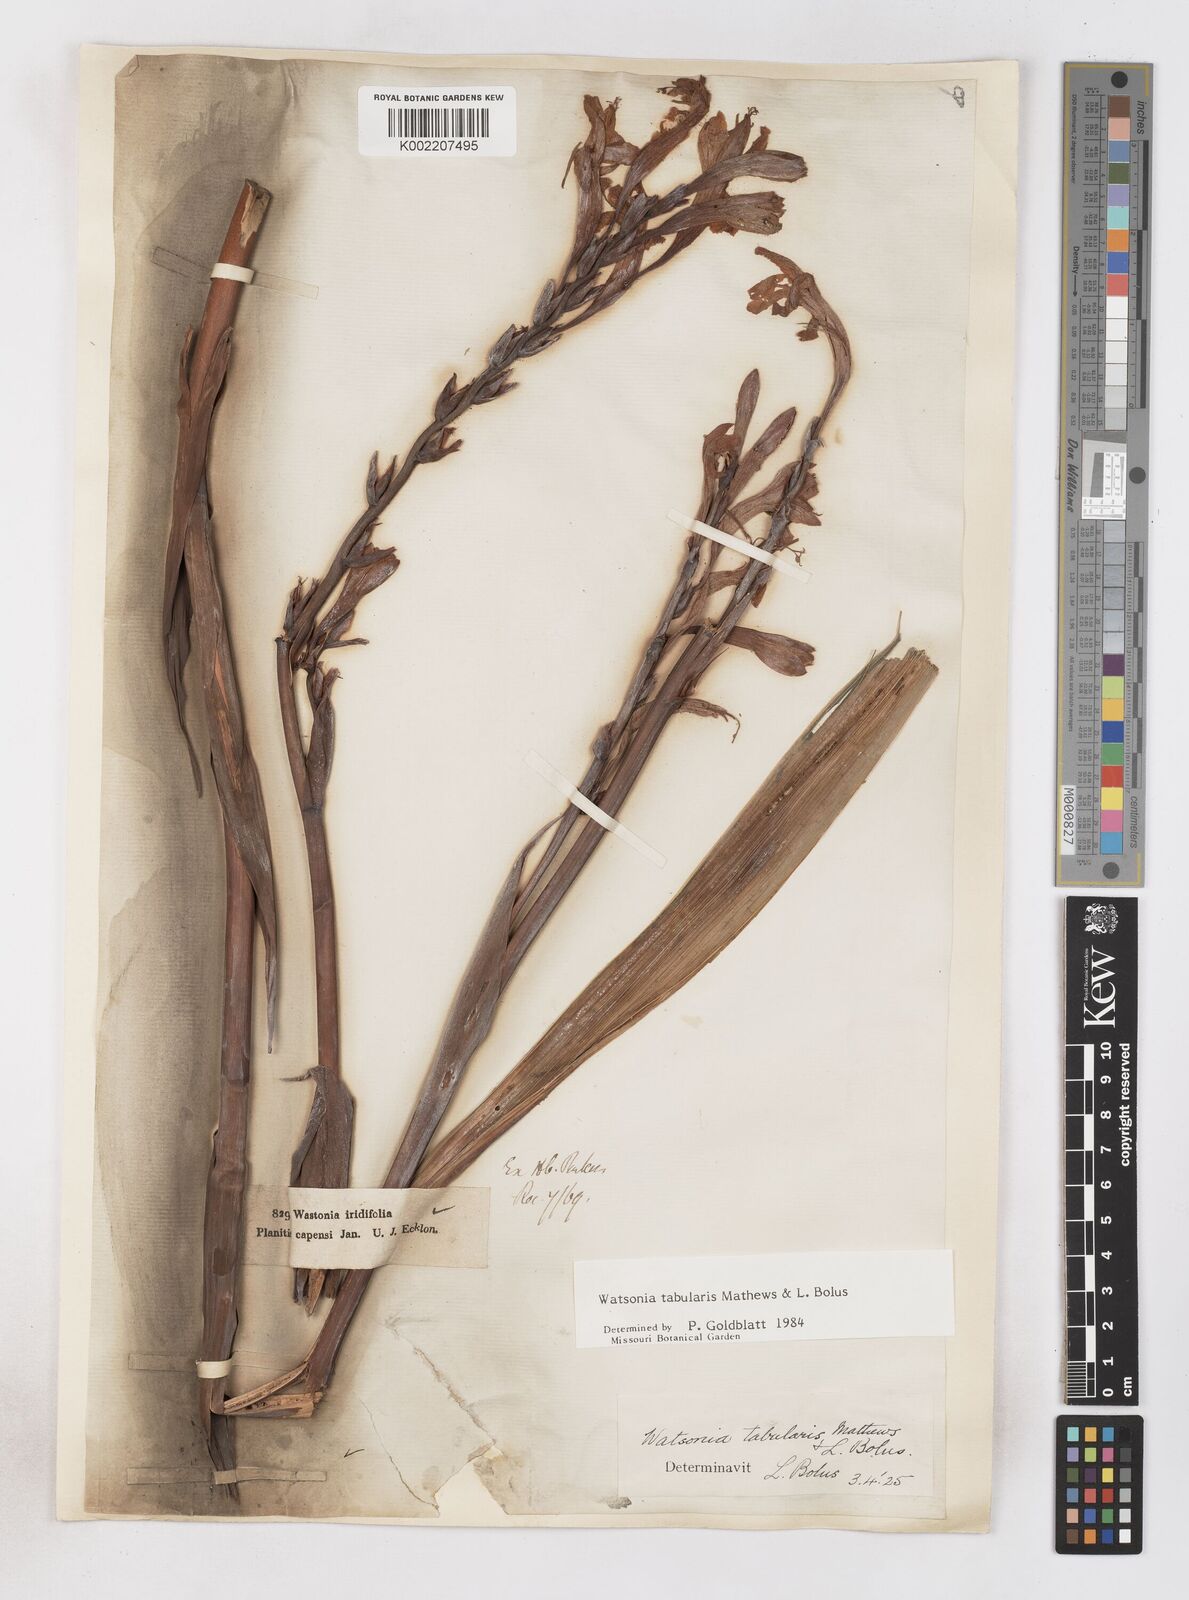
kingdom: Plantae
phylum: Tracheophyta
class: Liliopsida
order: Asparagales
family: Iridaceae
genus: Watsonia
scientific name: Watsonia tabularis
